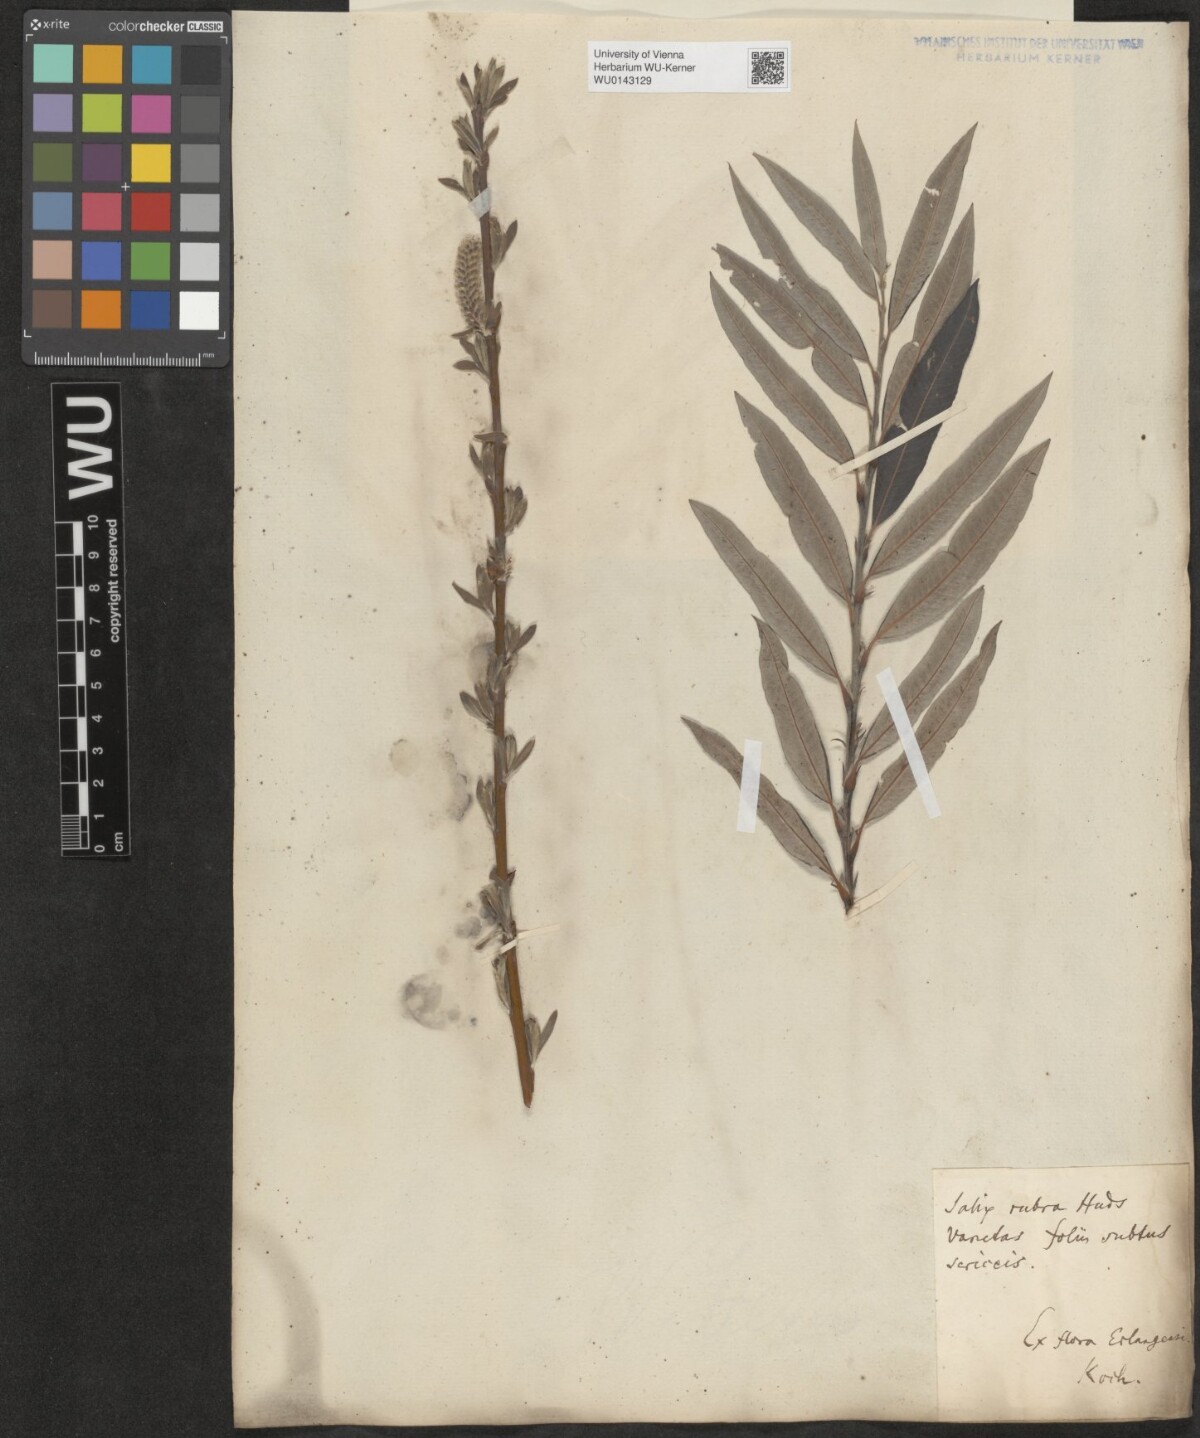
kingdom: Plantae
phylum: Tracheophyta
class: Magnoliopsida
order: Malpighiales
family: Salicaceae
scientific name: Salicaceae
